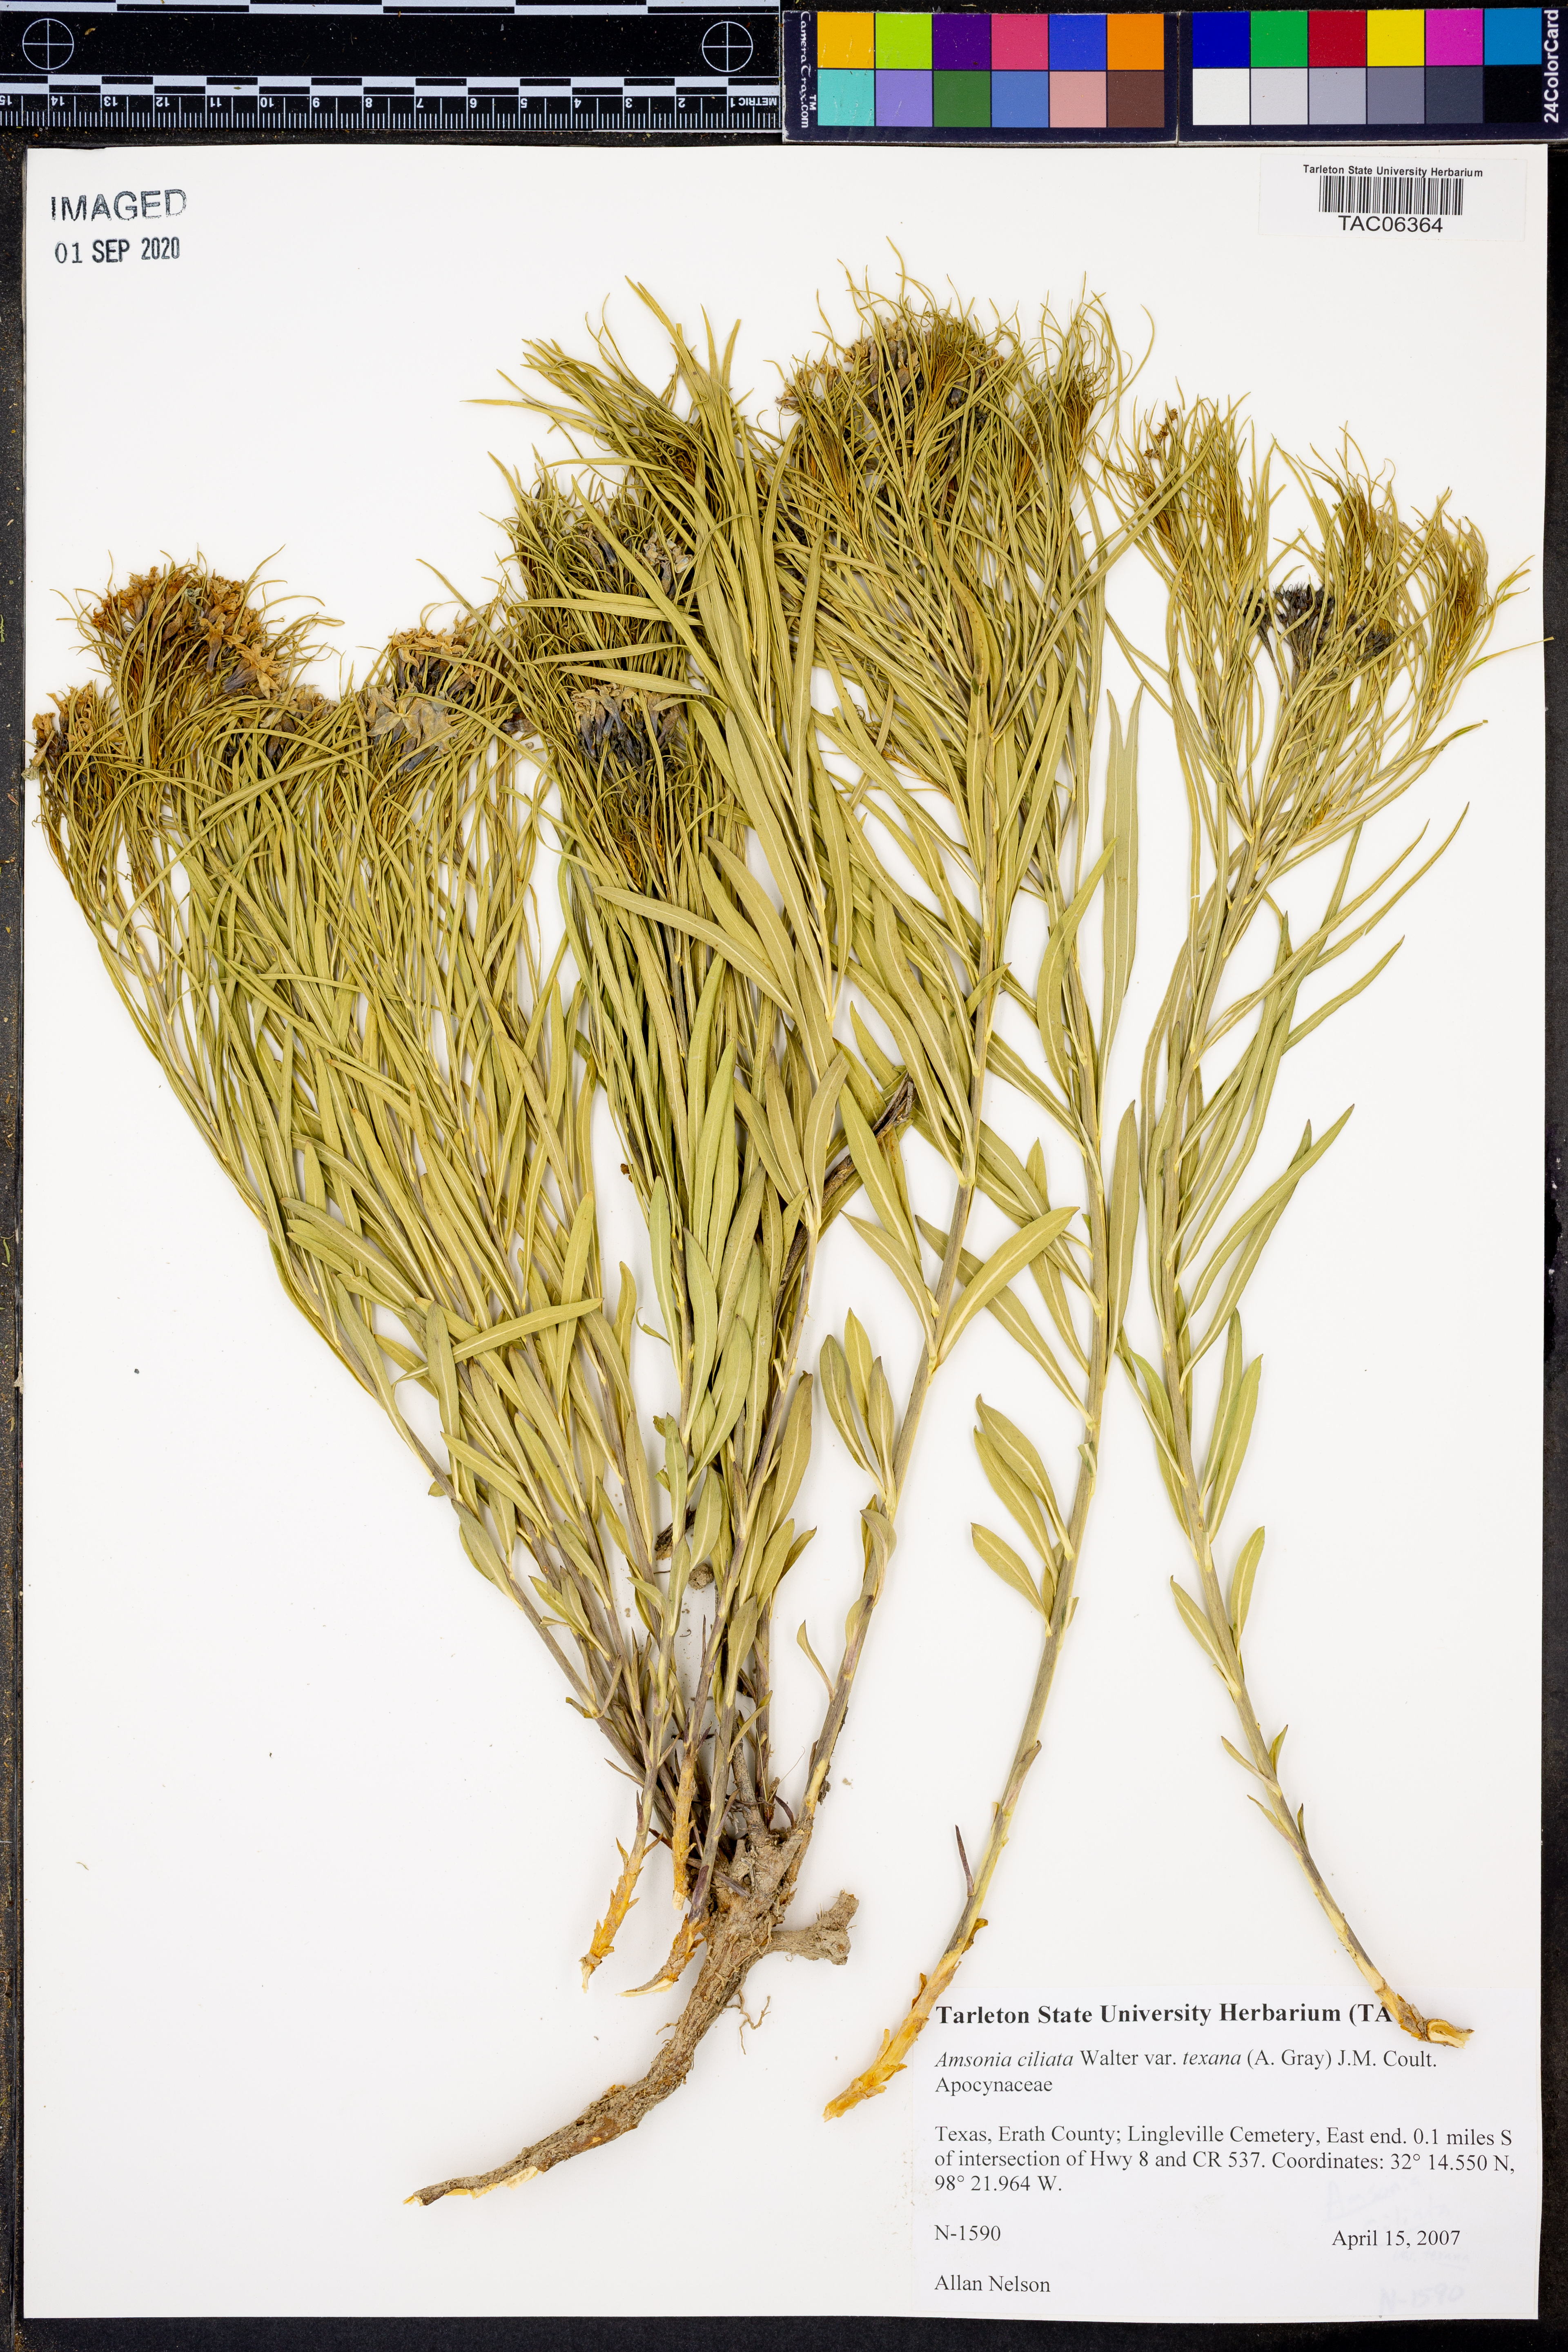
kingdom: Plantae
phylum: Tracheophyta
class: Magnoliopsida
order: Gentianales
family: Apocynaceae
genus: Amsonia
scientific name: Amsonia ciliata
